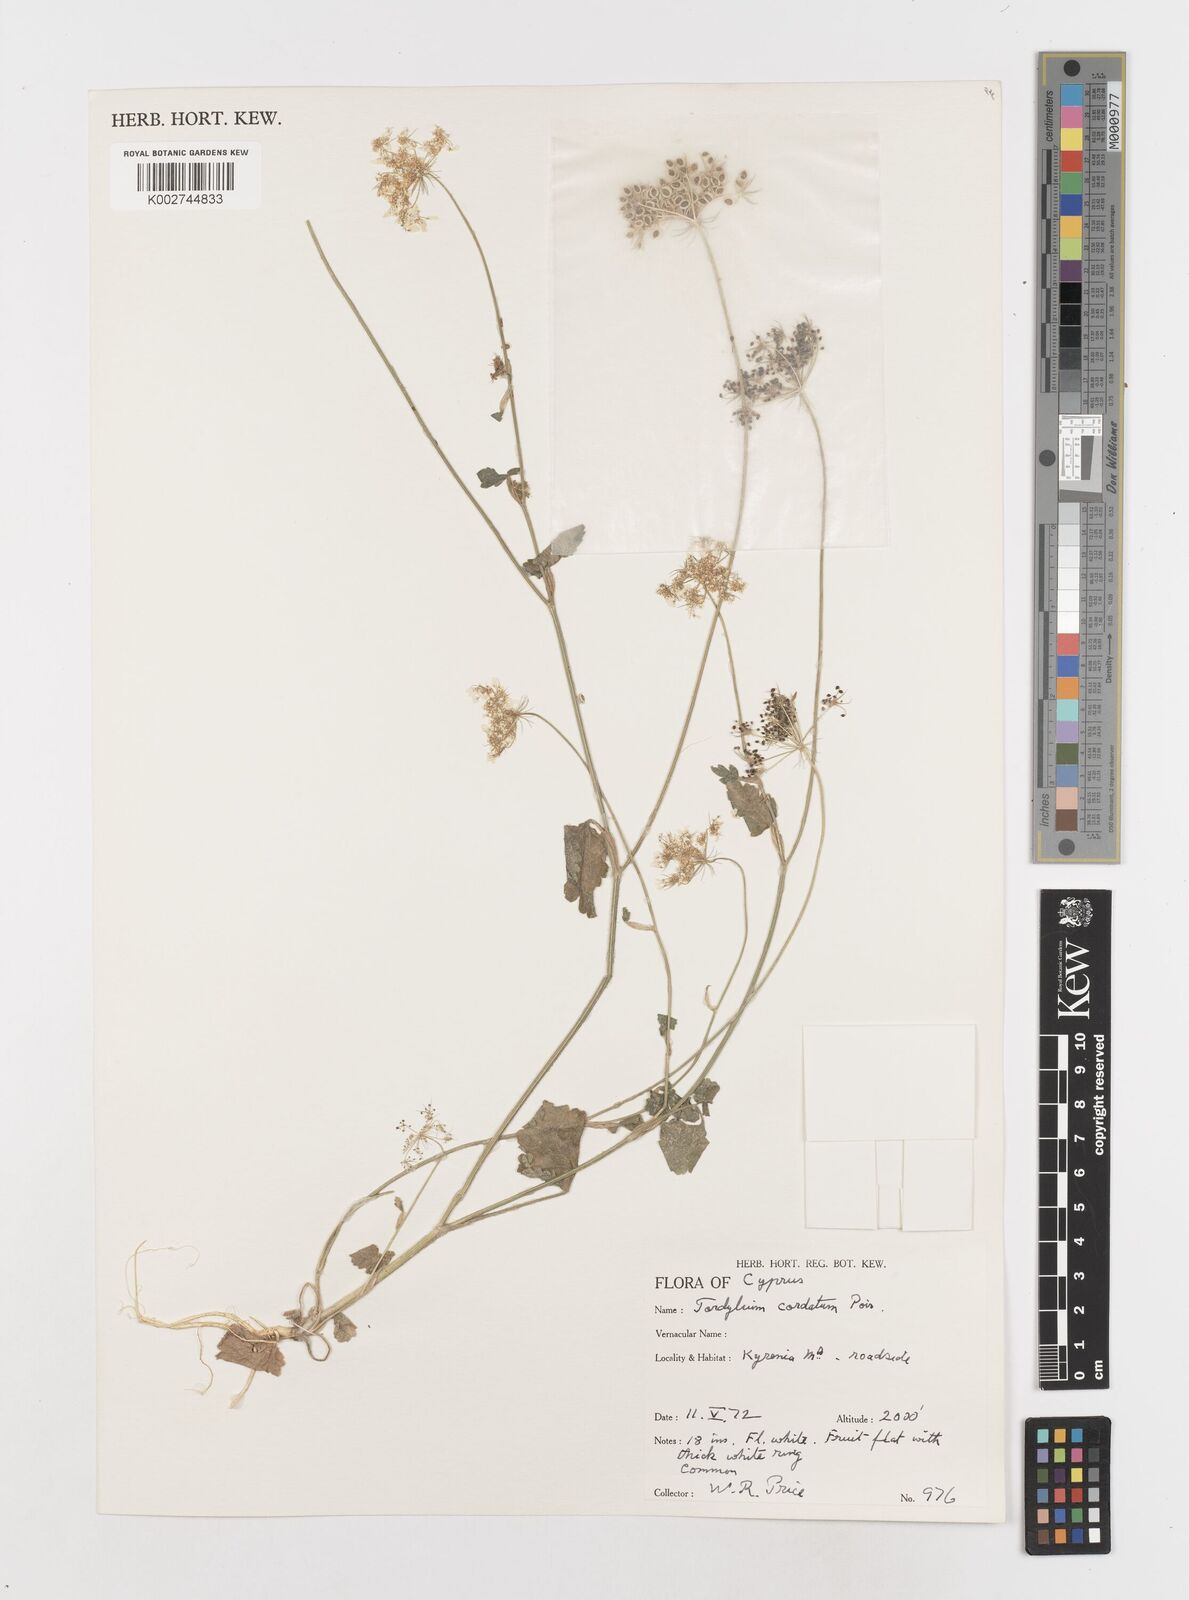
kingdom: Plantae
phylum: Tracheophyta
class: Magnoliopsida
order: Apiales
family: Apiaceae
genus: Ainsworthia
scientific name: Ainsworthia cordata
